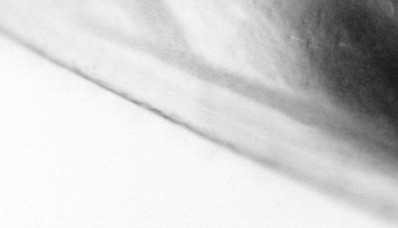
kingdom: Animalia
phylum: Arthropoda
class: Copepoda
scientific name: Copepoda
